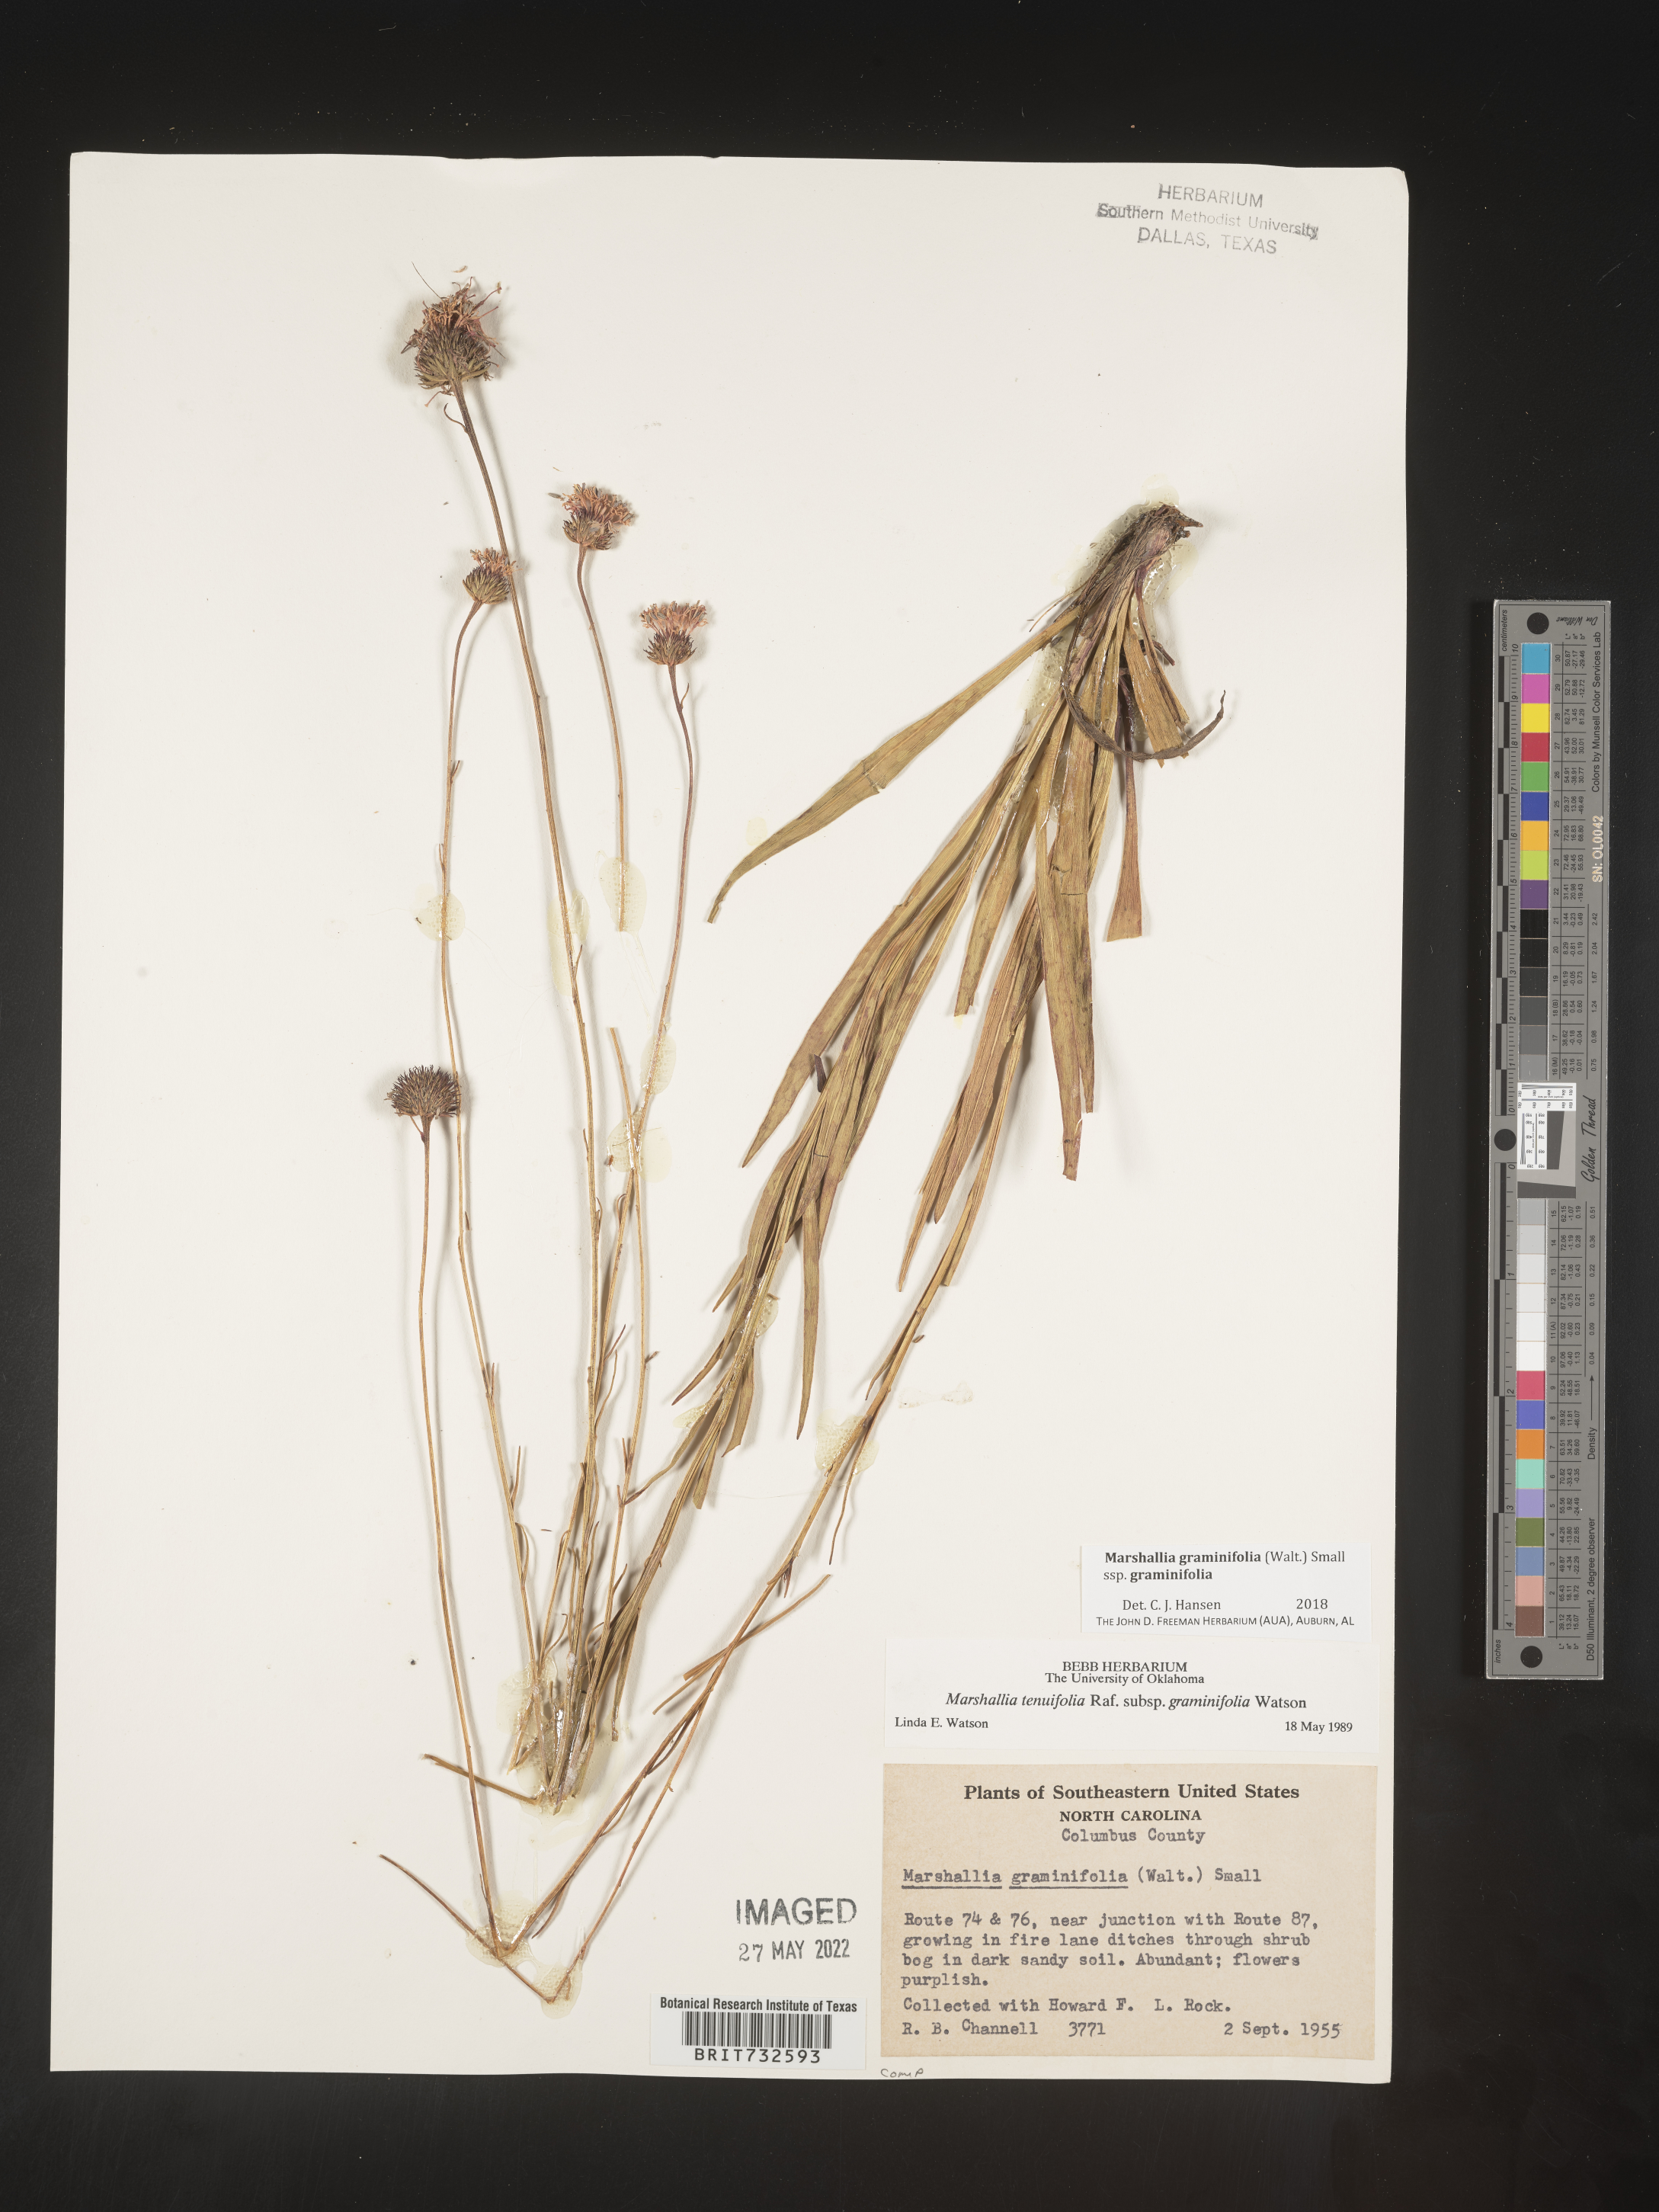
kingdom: Plantae
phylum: Tracheophyta
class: Magnoliopsida
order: Asterales
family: Asteraceae
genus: Marshallia
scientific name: Marshallia graminifolia
